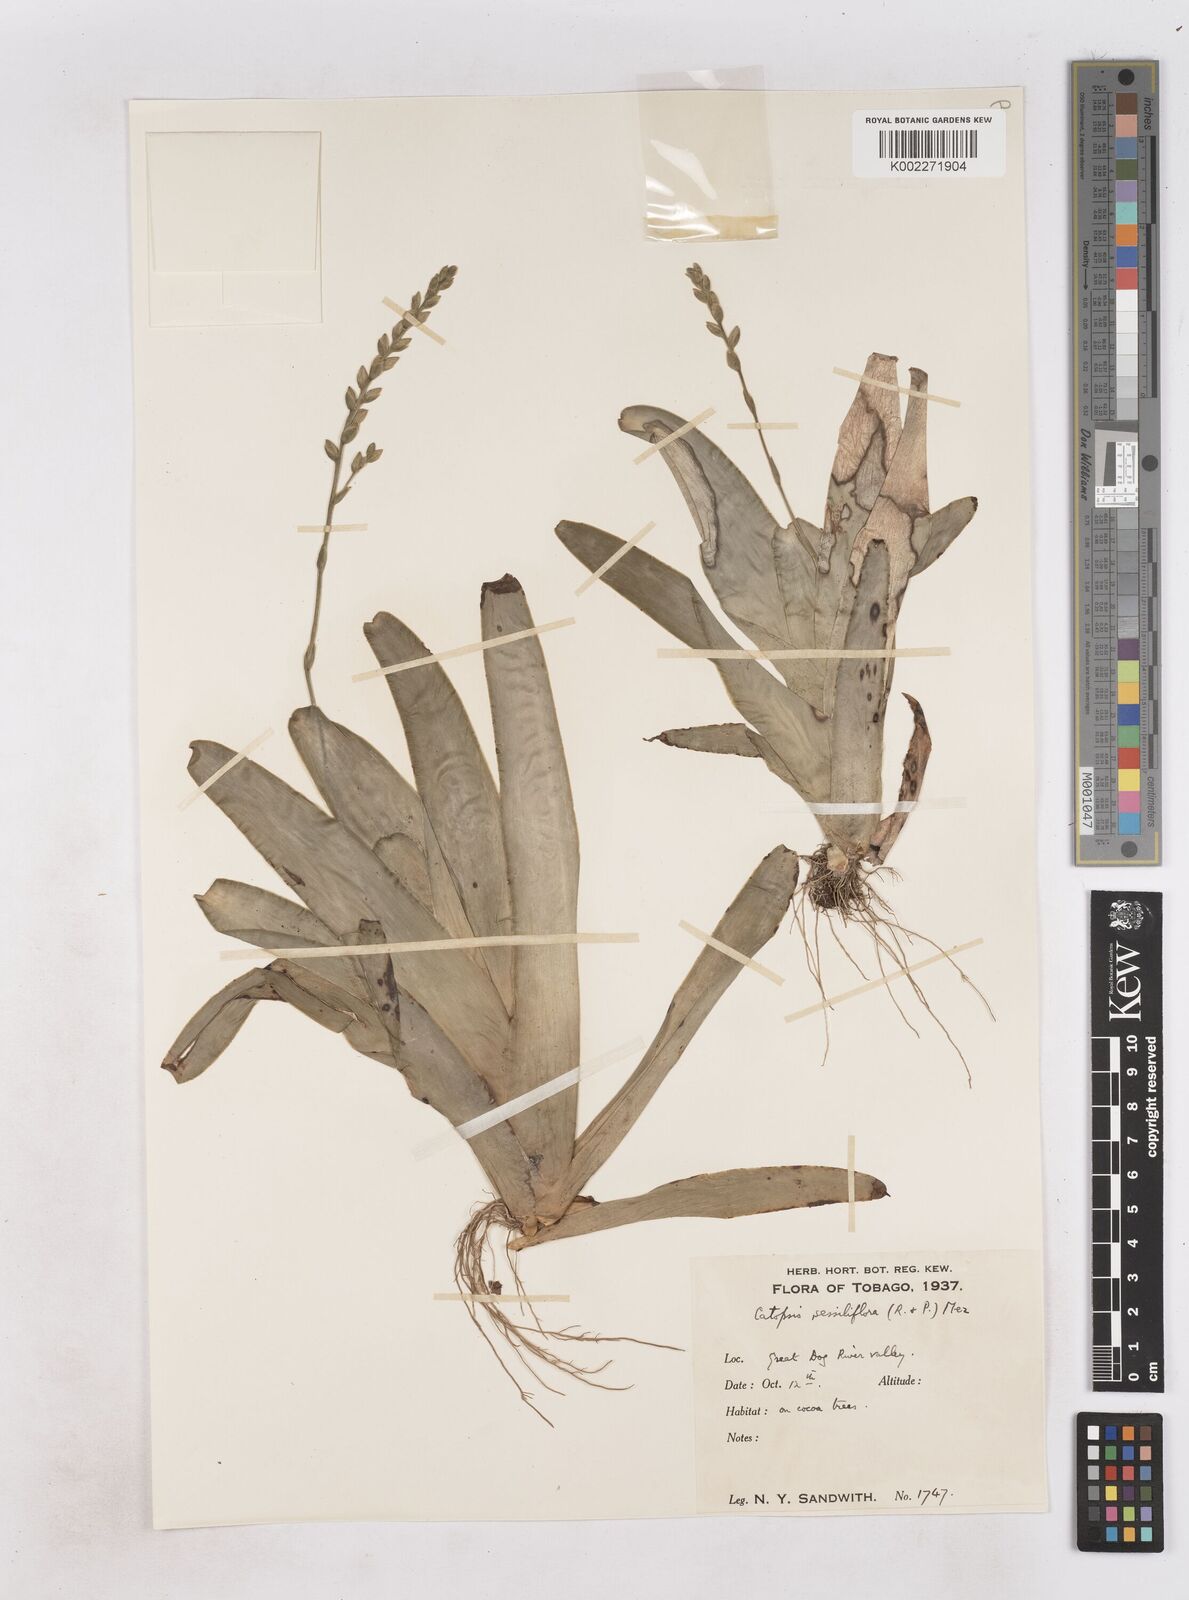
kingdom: Plantae
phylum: Tracheophyta
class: Liliopsida
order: Poales
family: Bromeliaceae
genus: Catopsis
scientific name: Catopsis sessiliflora
